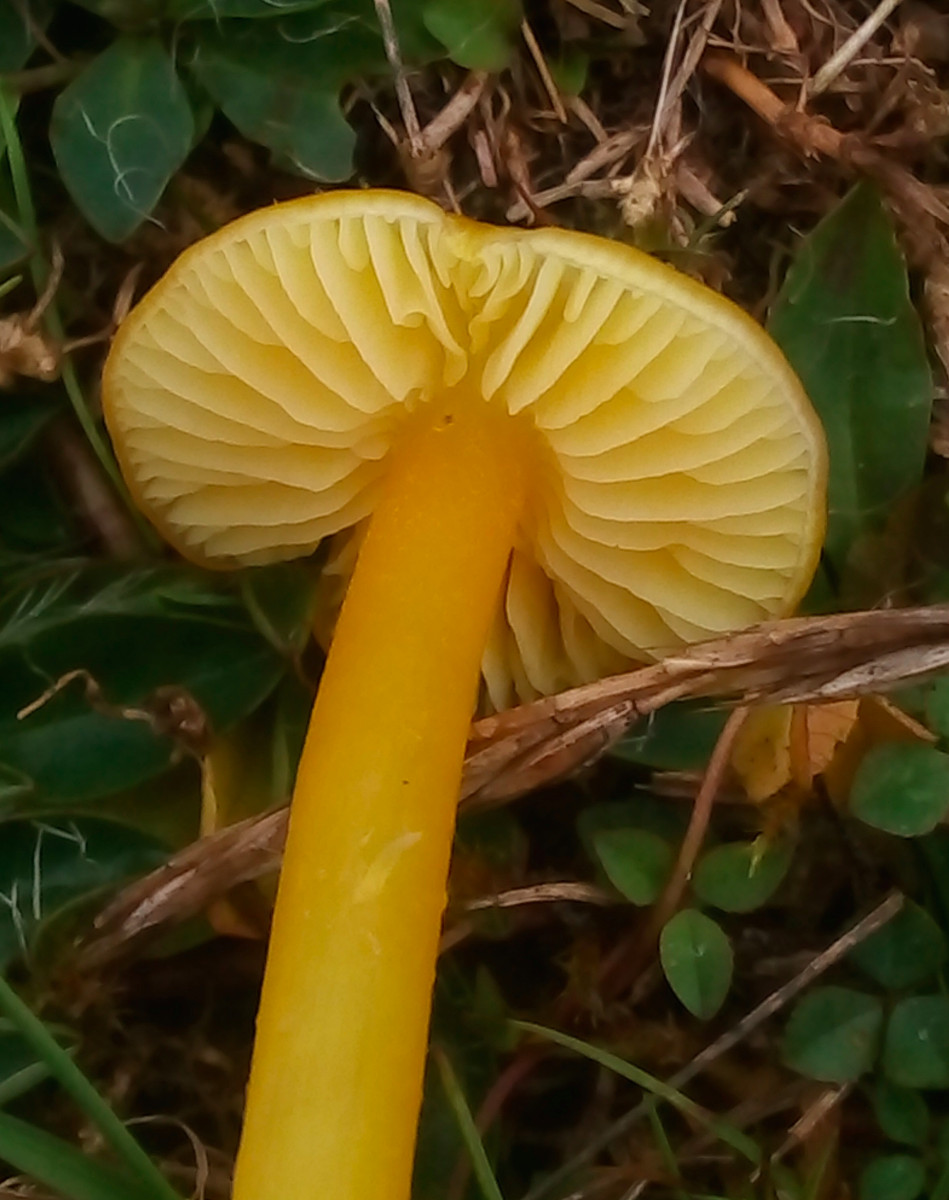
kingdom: Fungi
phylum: Basidiomycota
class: Agaricomycetes
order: Agaricales
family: Hygrophoraceae
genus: Hygrocybe
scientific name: Hygrocybe chlorophana
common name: gul vokshat
